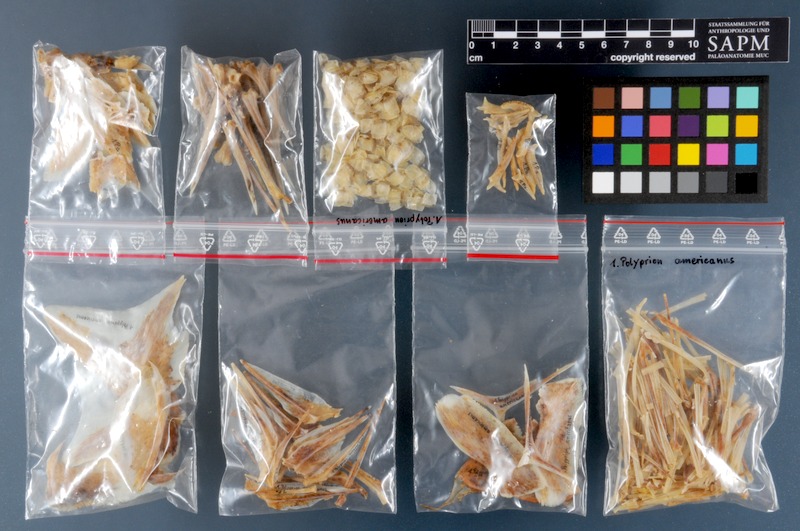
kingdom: Animalia
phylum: Chordata
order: Perciformes
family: Polyprionidae
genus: Polyprion
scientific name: Polyprion americanus
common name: Wreckfish
